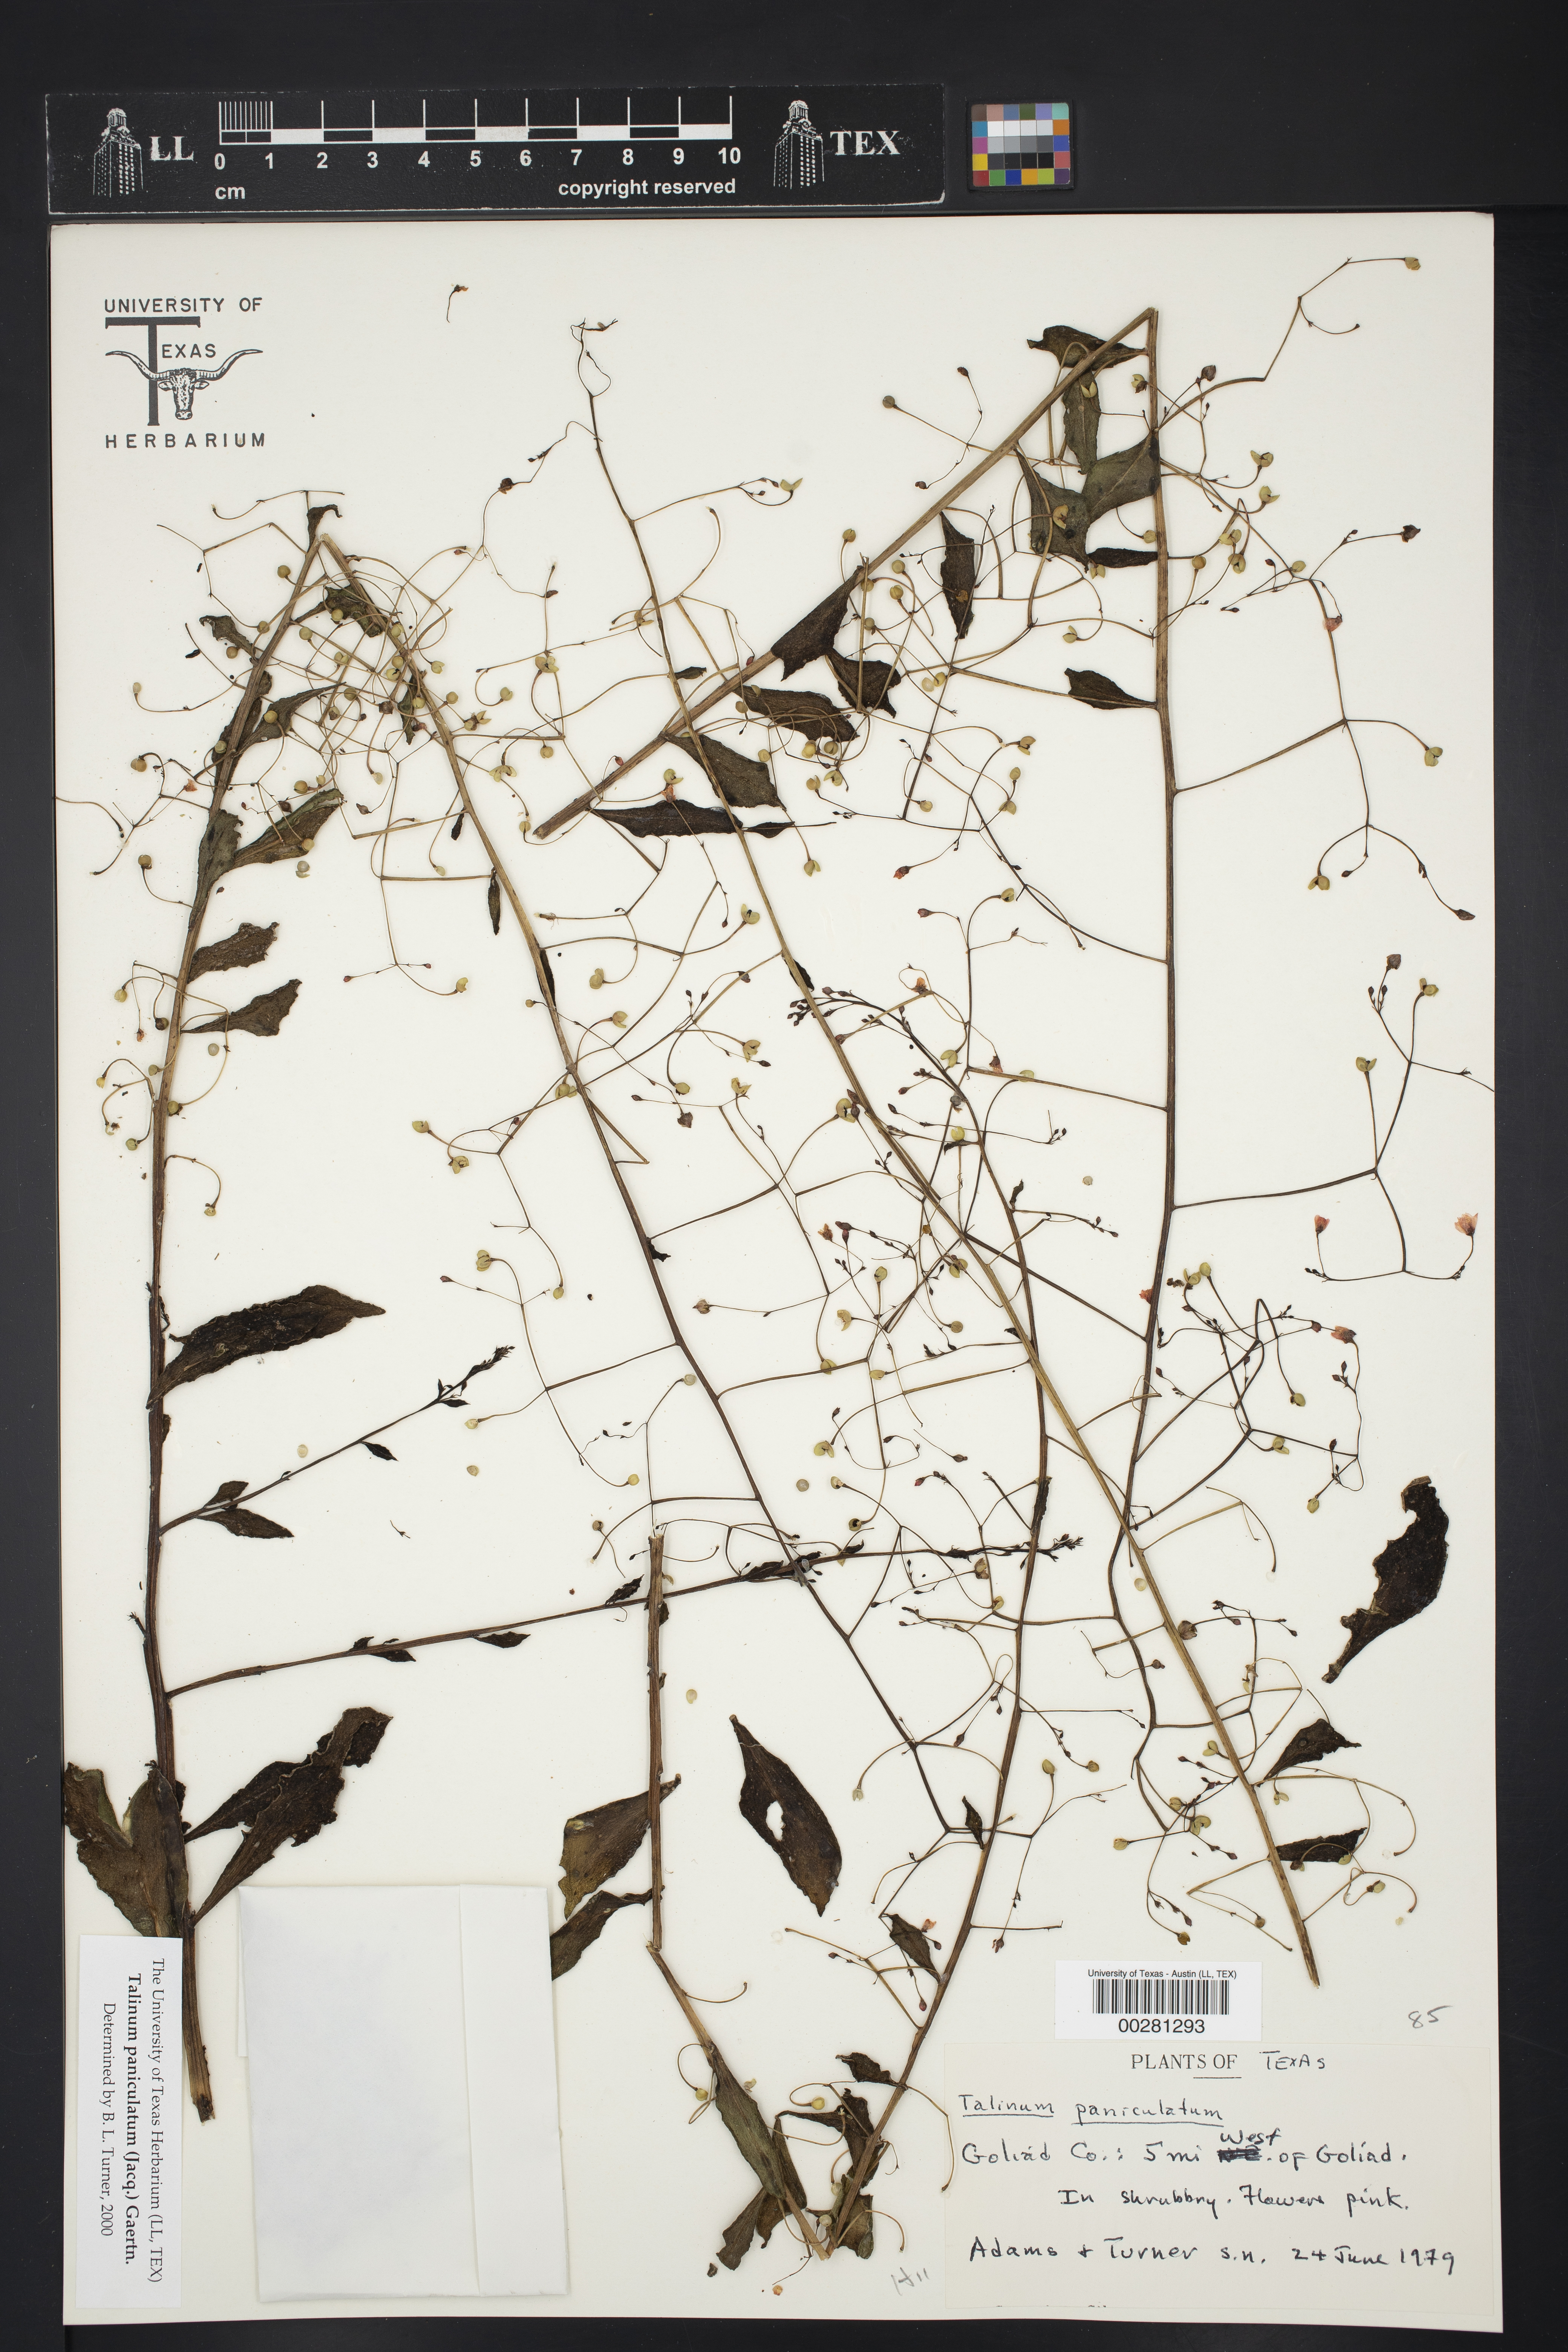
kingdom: Plantae
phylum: Tracheophyta
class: Magnoliopsida
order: Caryophyllales
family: Talinaceae
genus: Talinum
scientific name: Talinum paniculatum
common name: Jewels of opar
